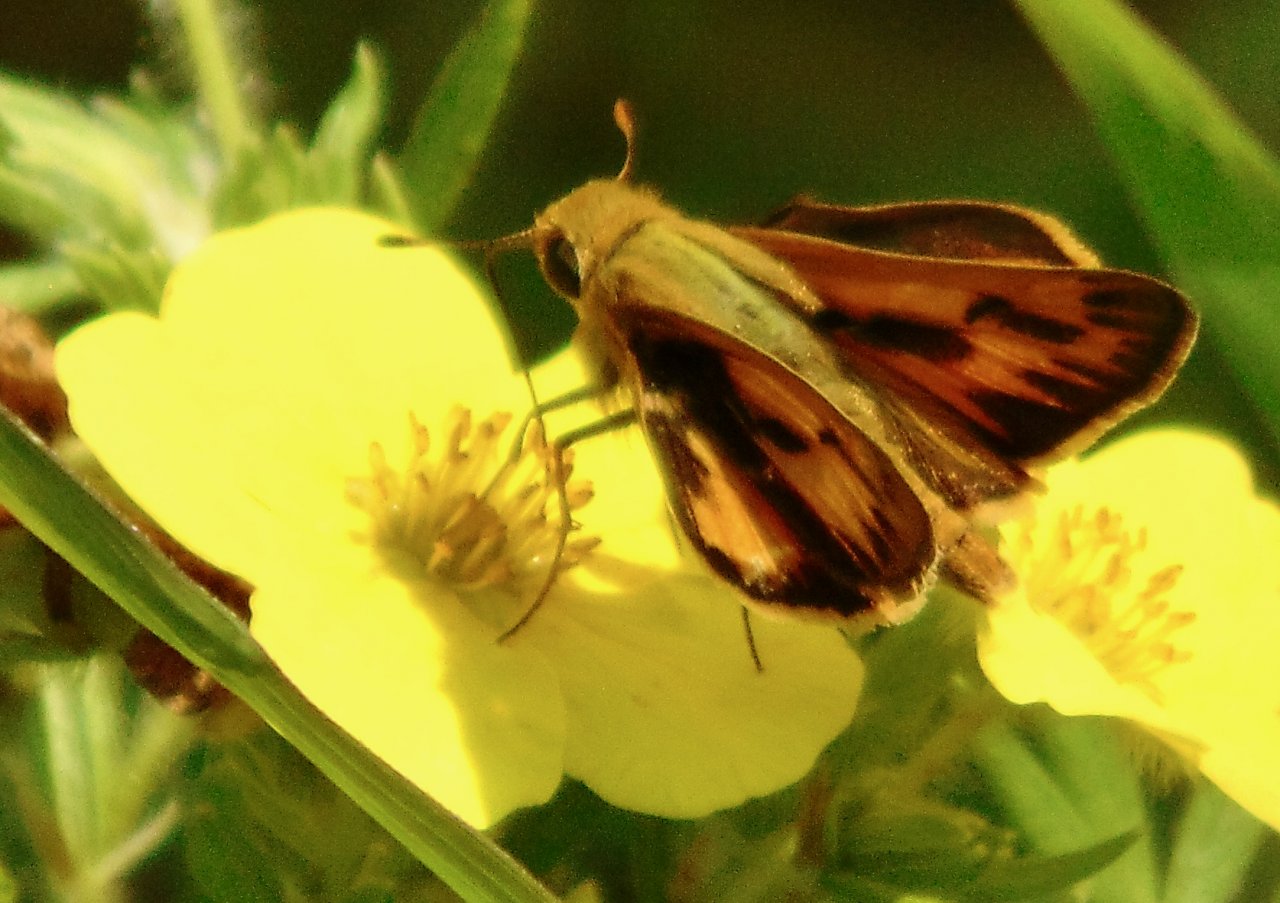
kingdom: Animalia
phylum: Arthropoda
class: Insecta
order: Lepidoptera
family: Hesperiidae
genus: Hylephila
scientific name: Hylephila phyleus
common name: Fiery Skipper
